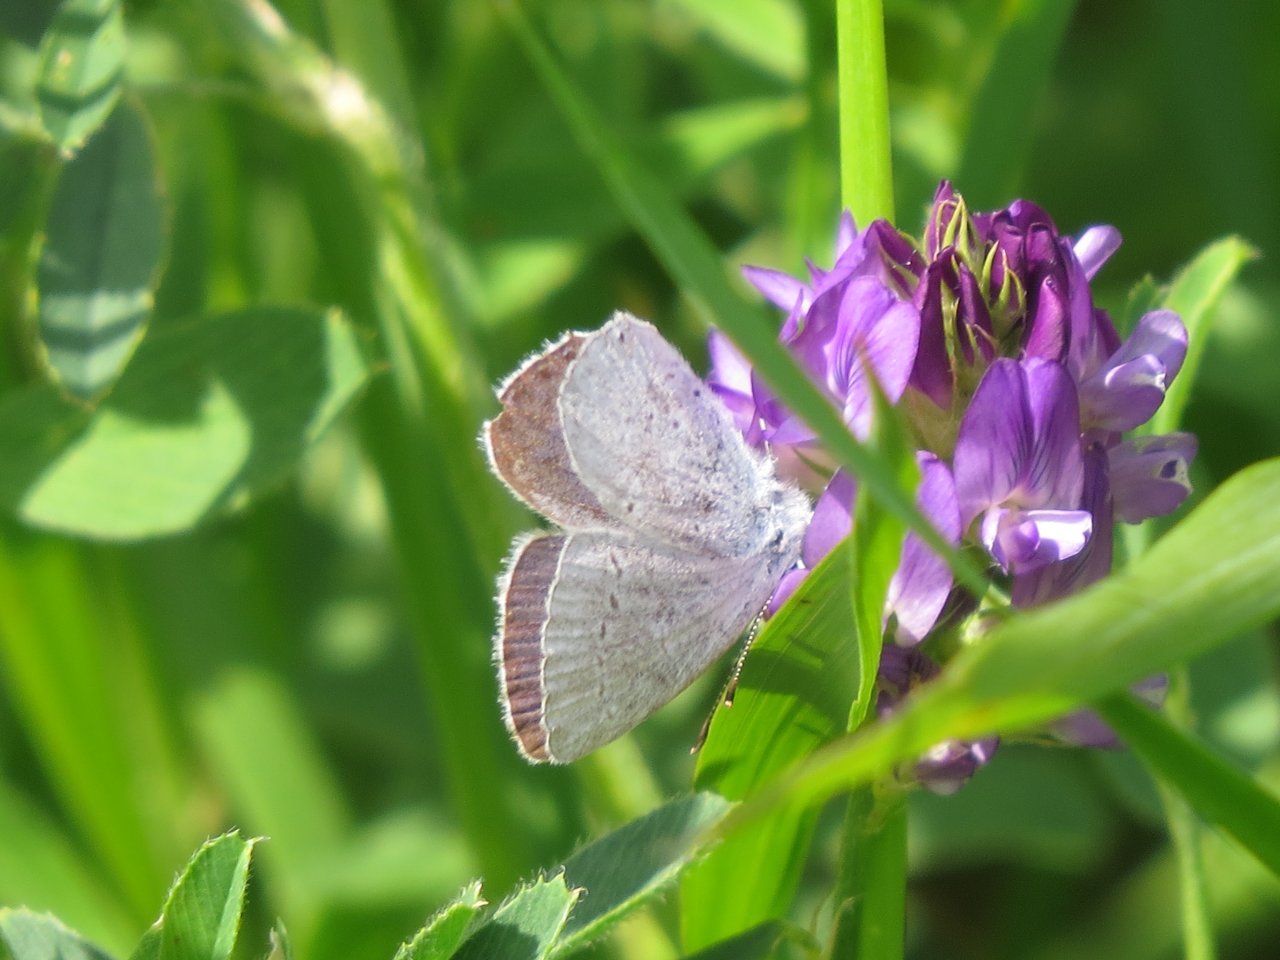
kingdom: Animalia
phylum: Arthropoda
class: Insecta
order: Lepidoptera
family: Lycaenidae
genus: Elkalyce
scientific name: Elkalyce amyntula
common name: Western Tailed-Blue
